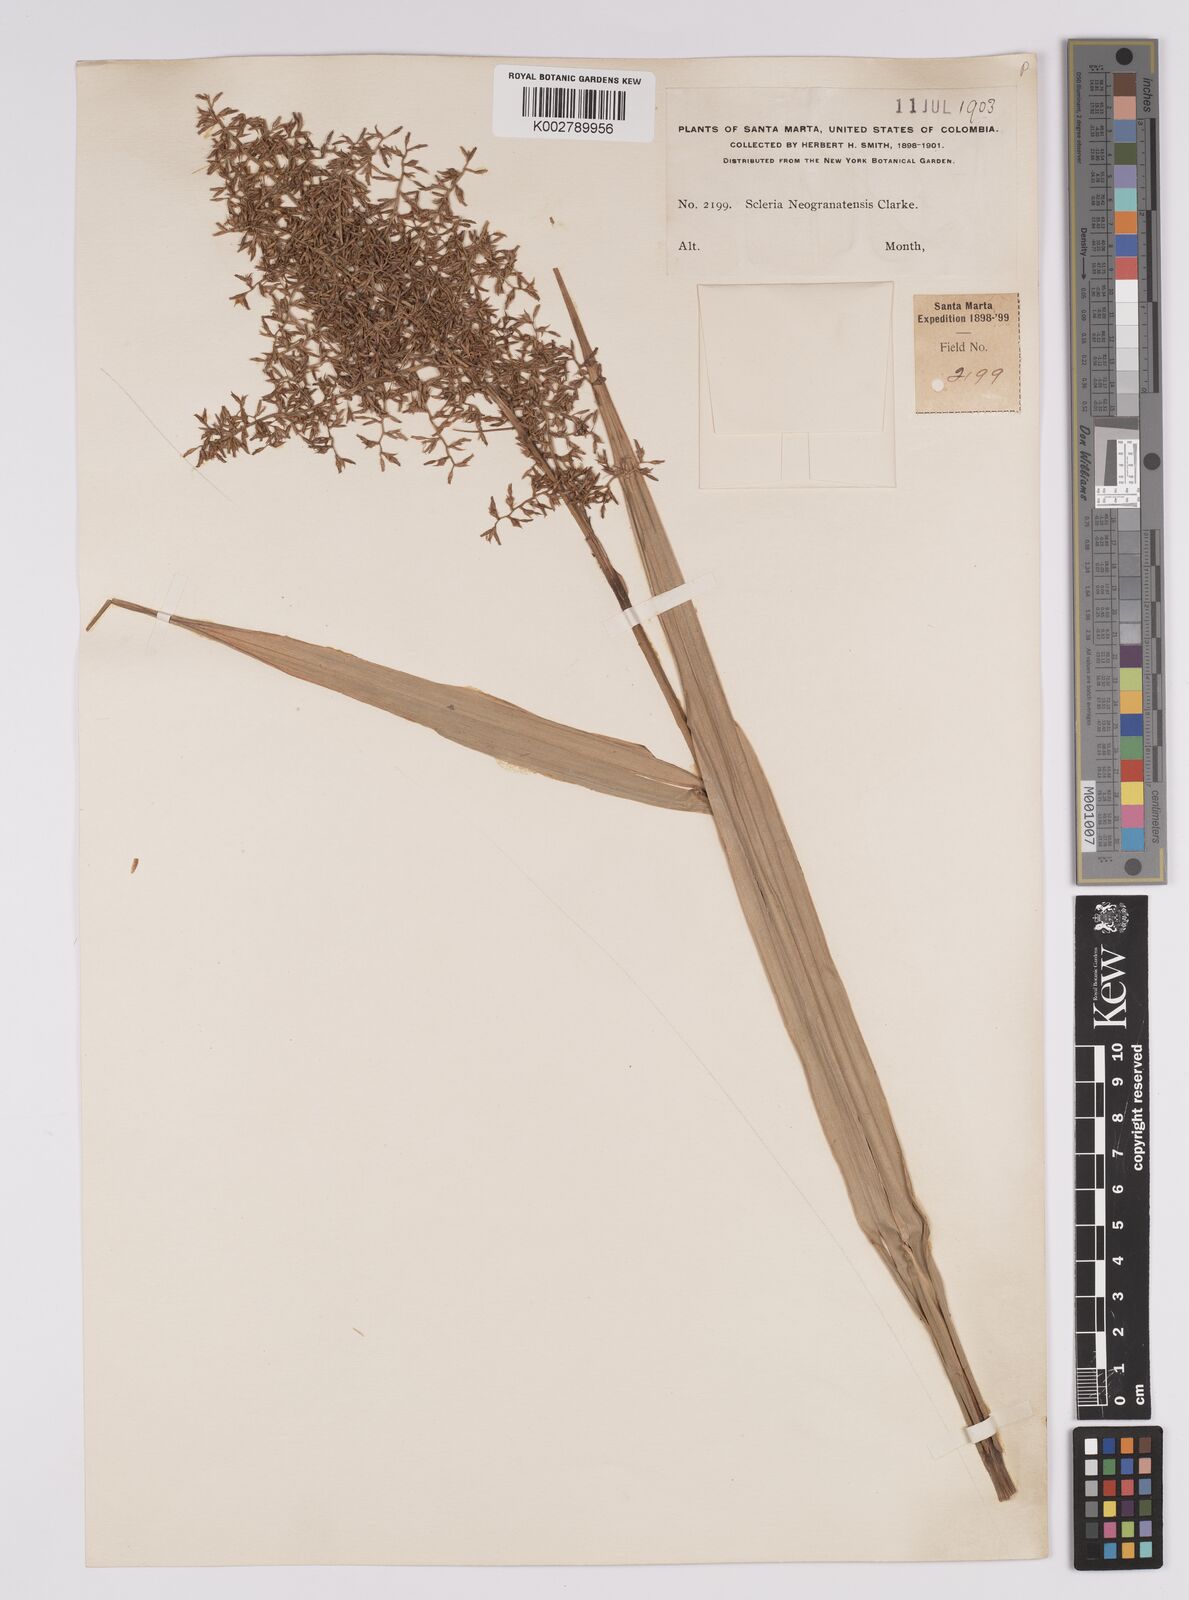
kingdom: Plantae
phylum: Tracheophyta
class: Liliopsida
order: Poales
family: Cyperaceae
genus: Scleria
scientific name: Scleria neogranatensis
